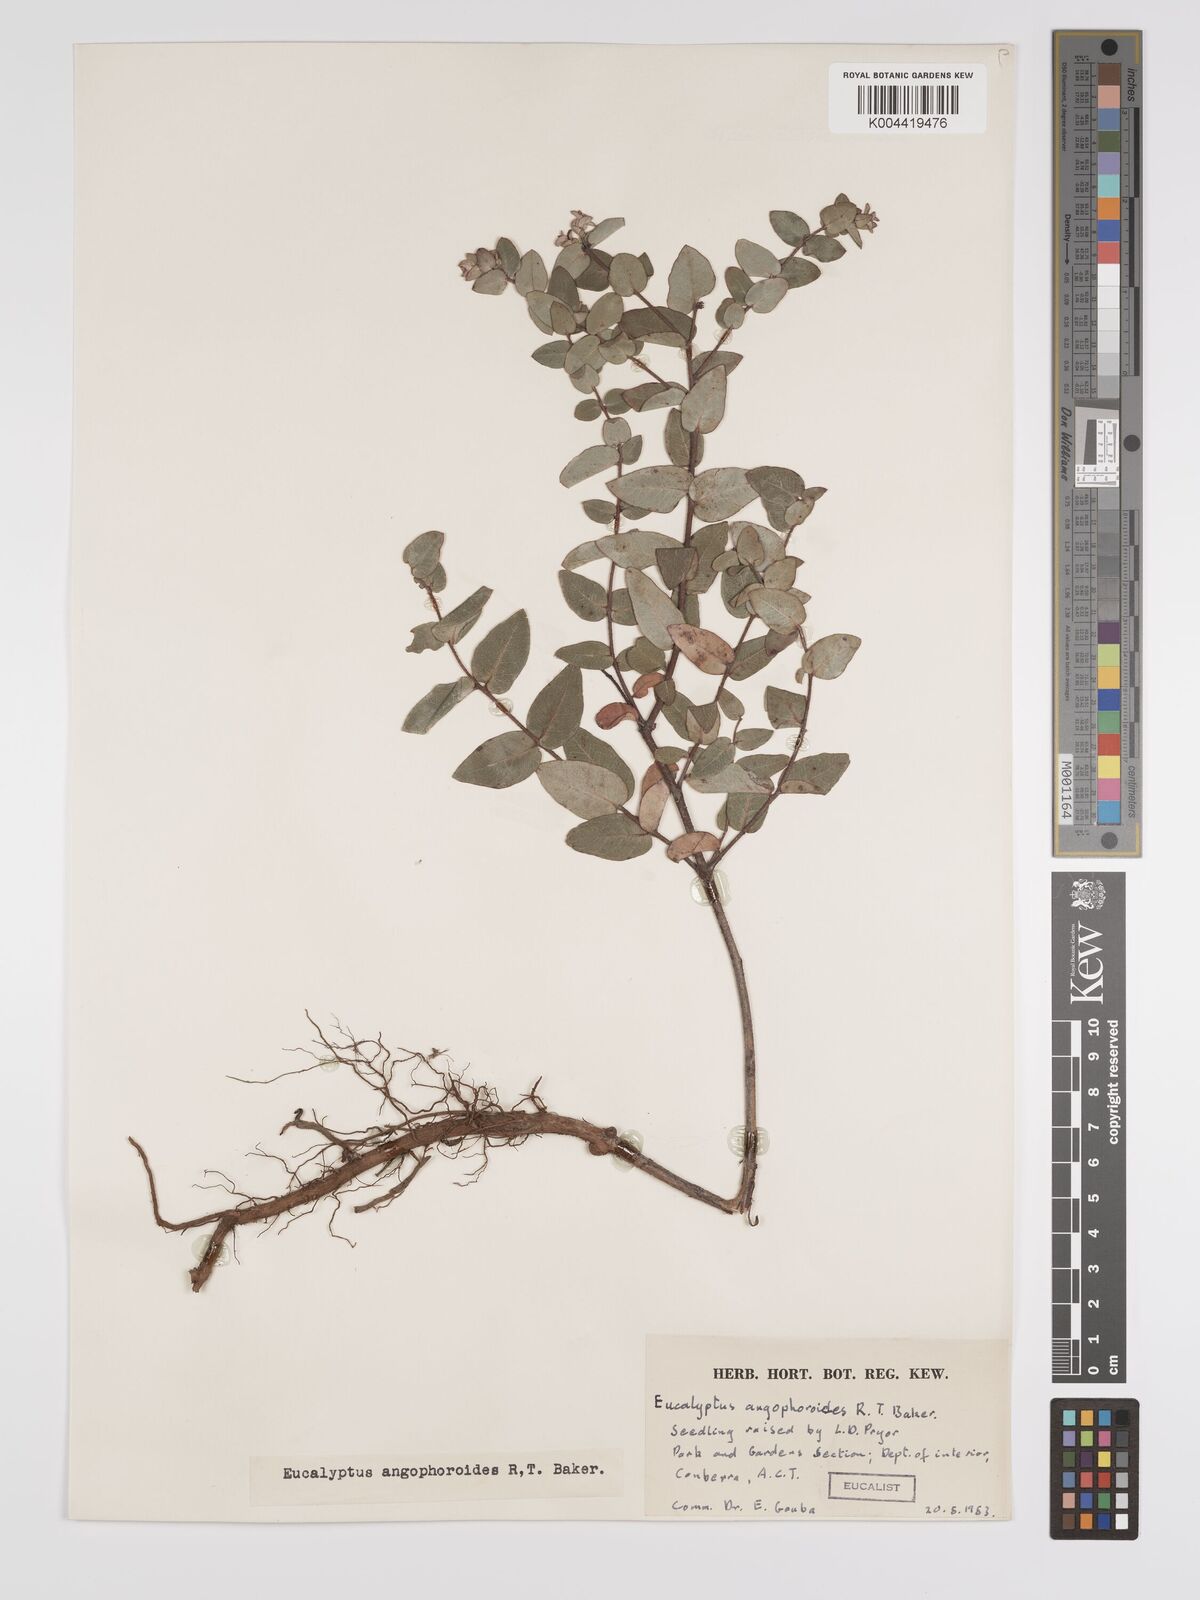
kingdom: Plantae
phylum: Tracheophyta
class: Magnoliopsida
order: Myrtales
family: Myrtaceae
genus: Eucalyptus
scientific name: Eucalyptus angophoroides
